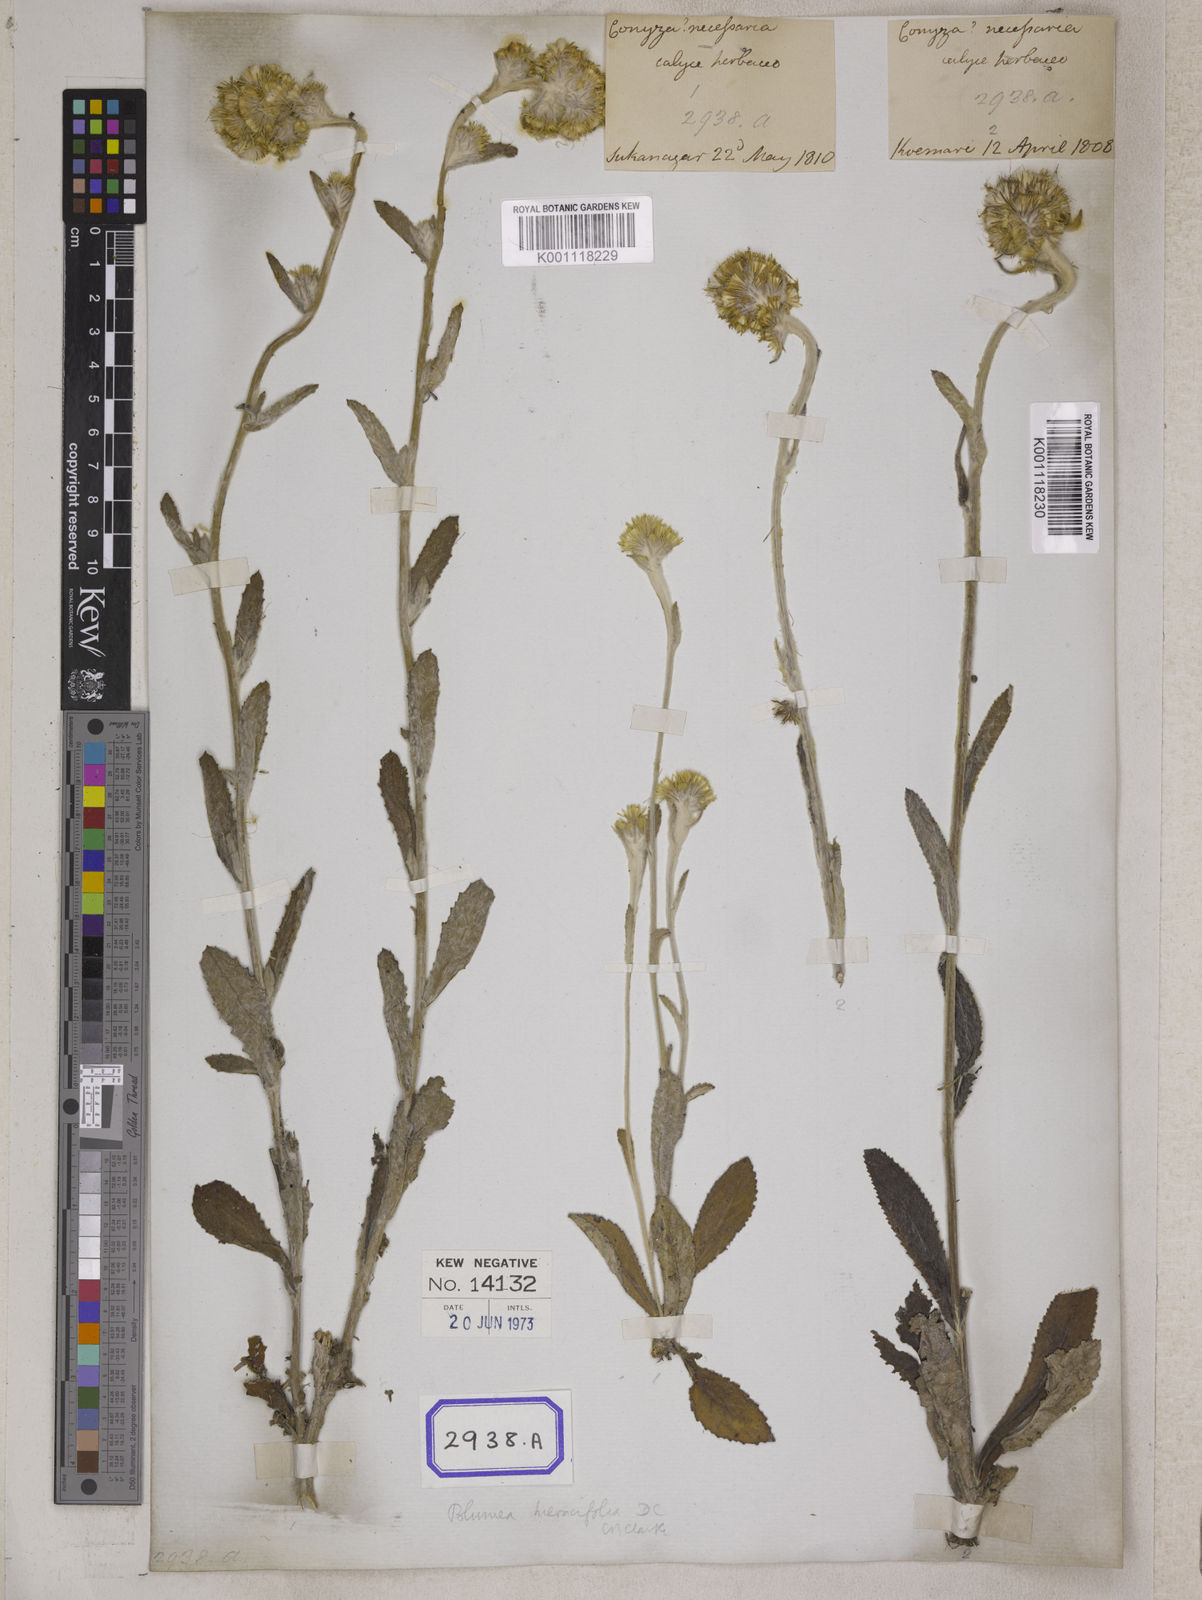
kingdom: Plantae
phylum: Tracheophyta
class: Magnoliopsida
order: Asterales
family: Asteraceae
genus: Blumea
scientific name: Blumea hamiltonii
